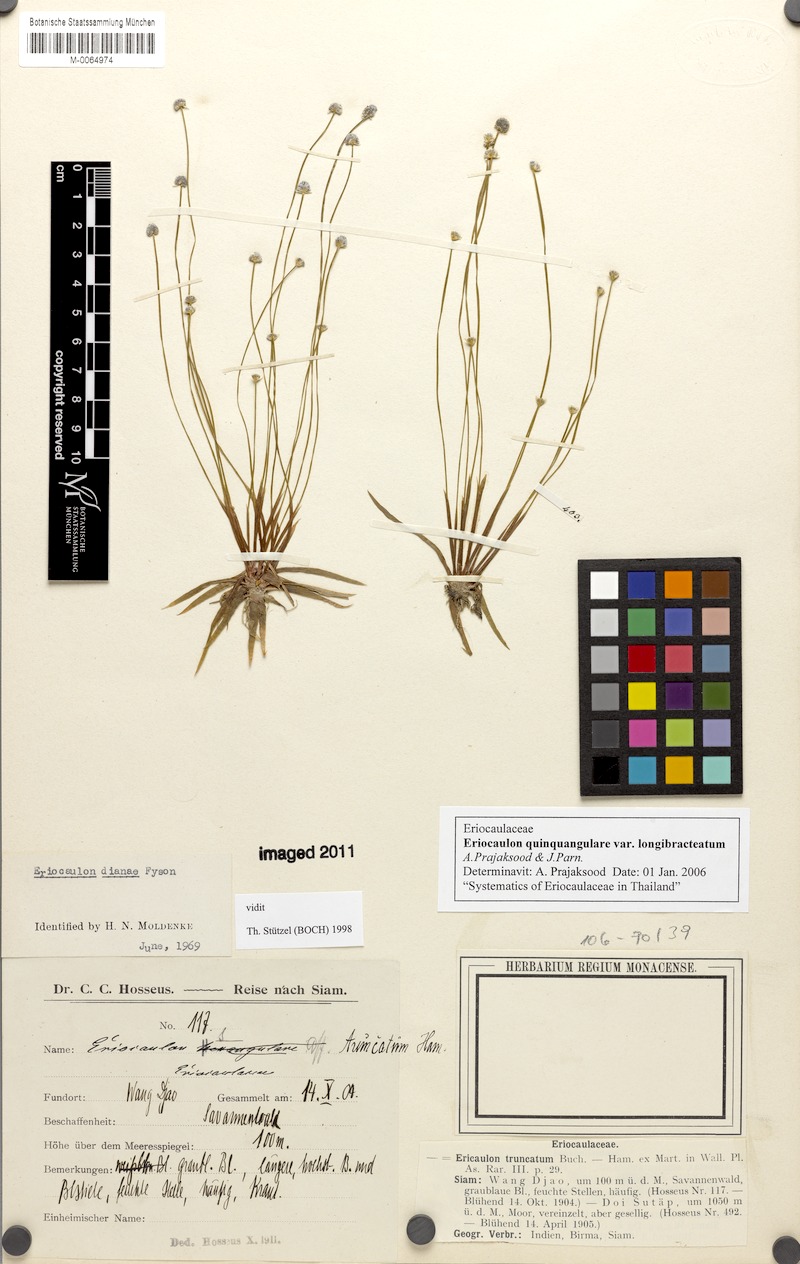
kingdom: Plantae
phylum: Tracheophyta
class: Liliopsida
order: Poales
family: Eriocaulaceae
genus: Eriocaulon
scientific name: Eriocaulon quinquangulare
